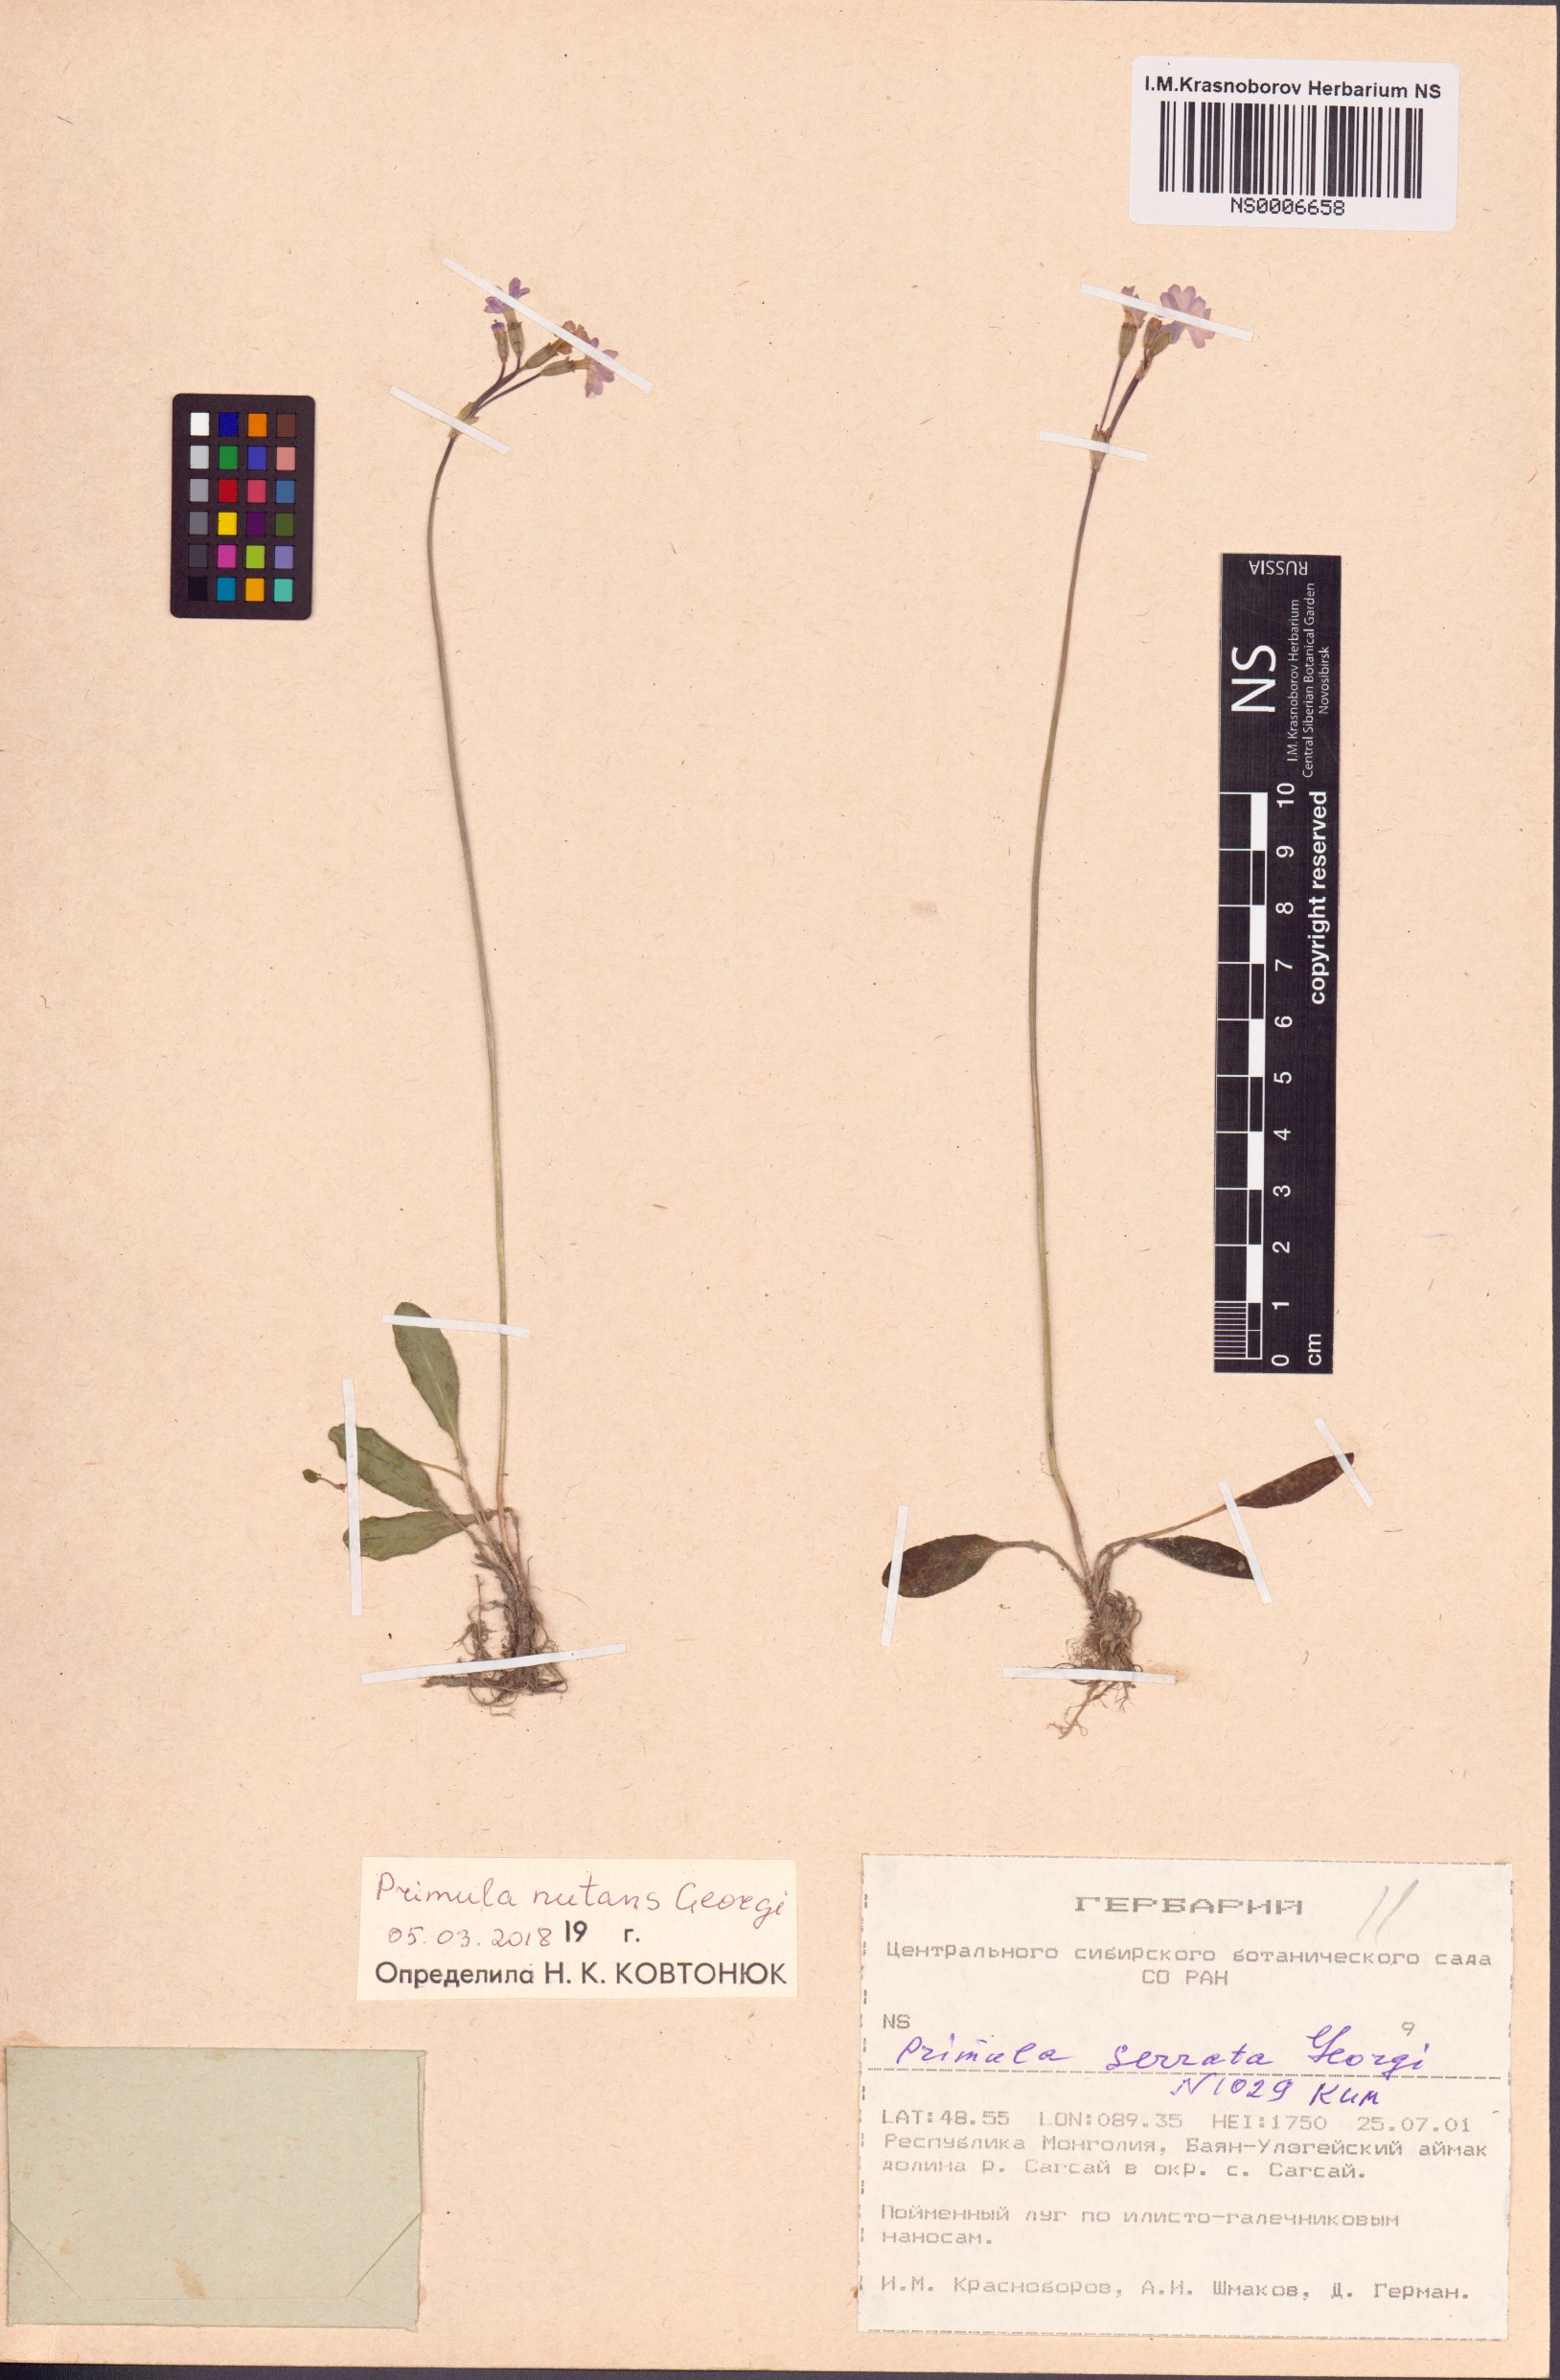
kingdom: Plantae
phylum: Tracheophyta
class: Magnoliopsida
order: Ericales
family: Primulaceae
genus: Primula
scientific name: Primula nutans
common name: Siberian primrose
